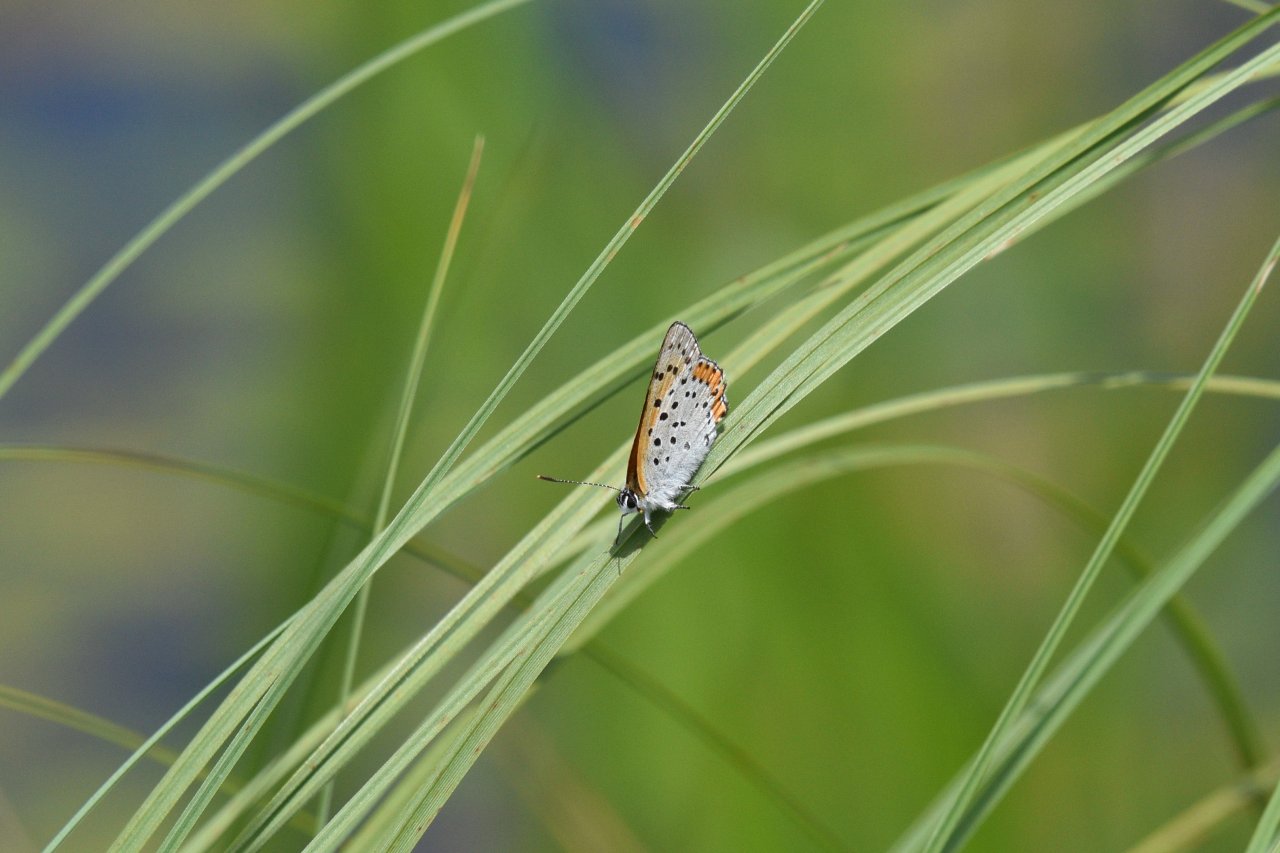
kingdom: Animalia
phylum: Arthropoda
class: Insecta
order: Lepidoptera
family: Sesiidae
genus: Sesia
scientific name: Sesia Lycaena hyllus
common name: Bronze Copper
